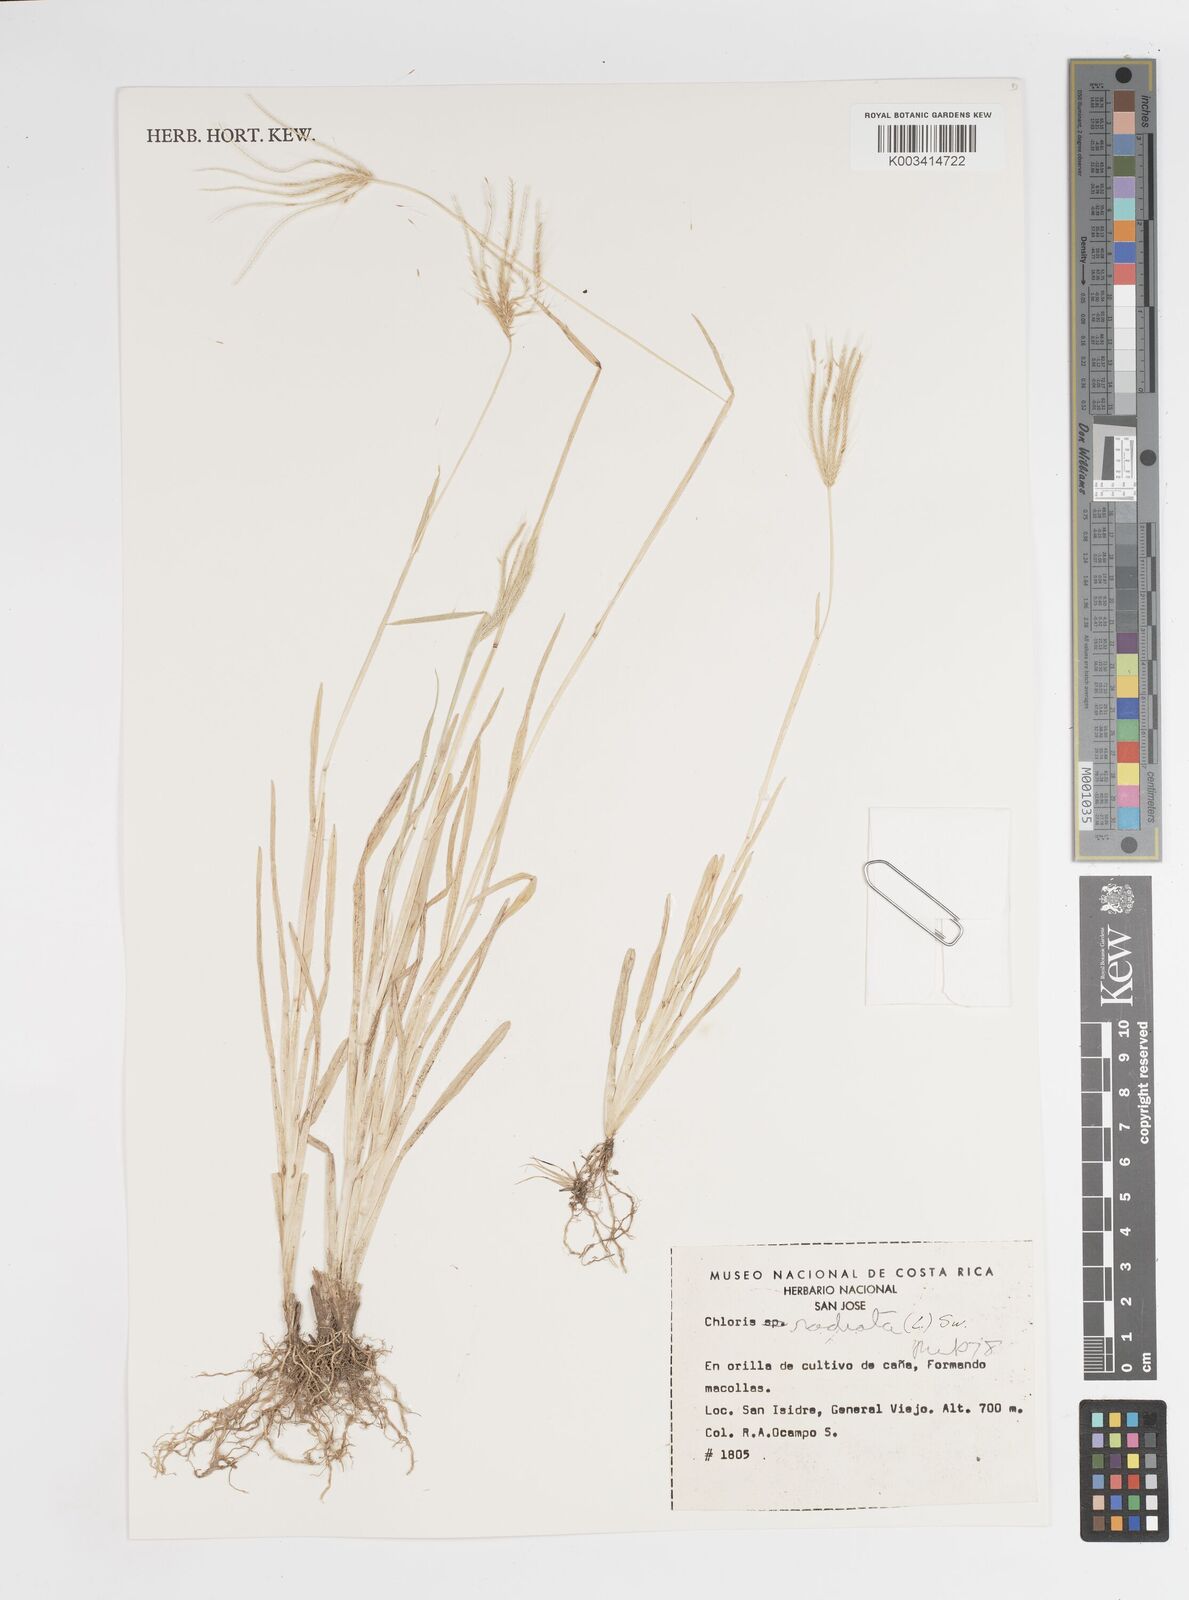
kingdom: Plantae
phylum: Tracheophyta
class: Liliopsida
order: Poales
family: Poaceae
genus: Chloris
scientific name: Chloris radiata
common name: Radiate fingergrass
